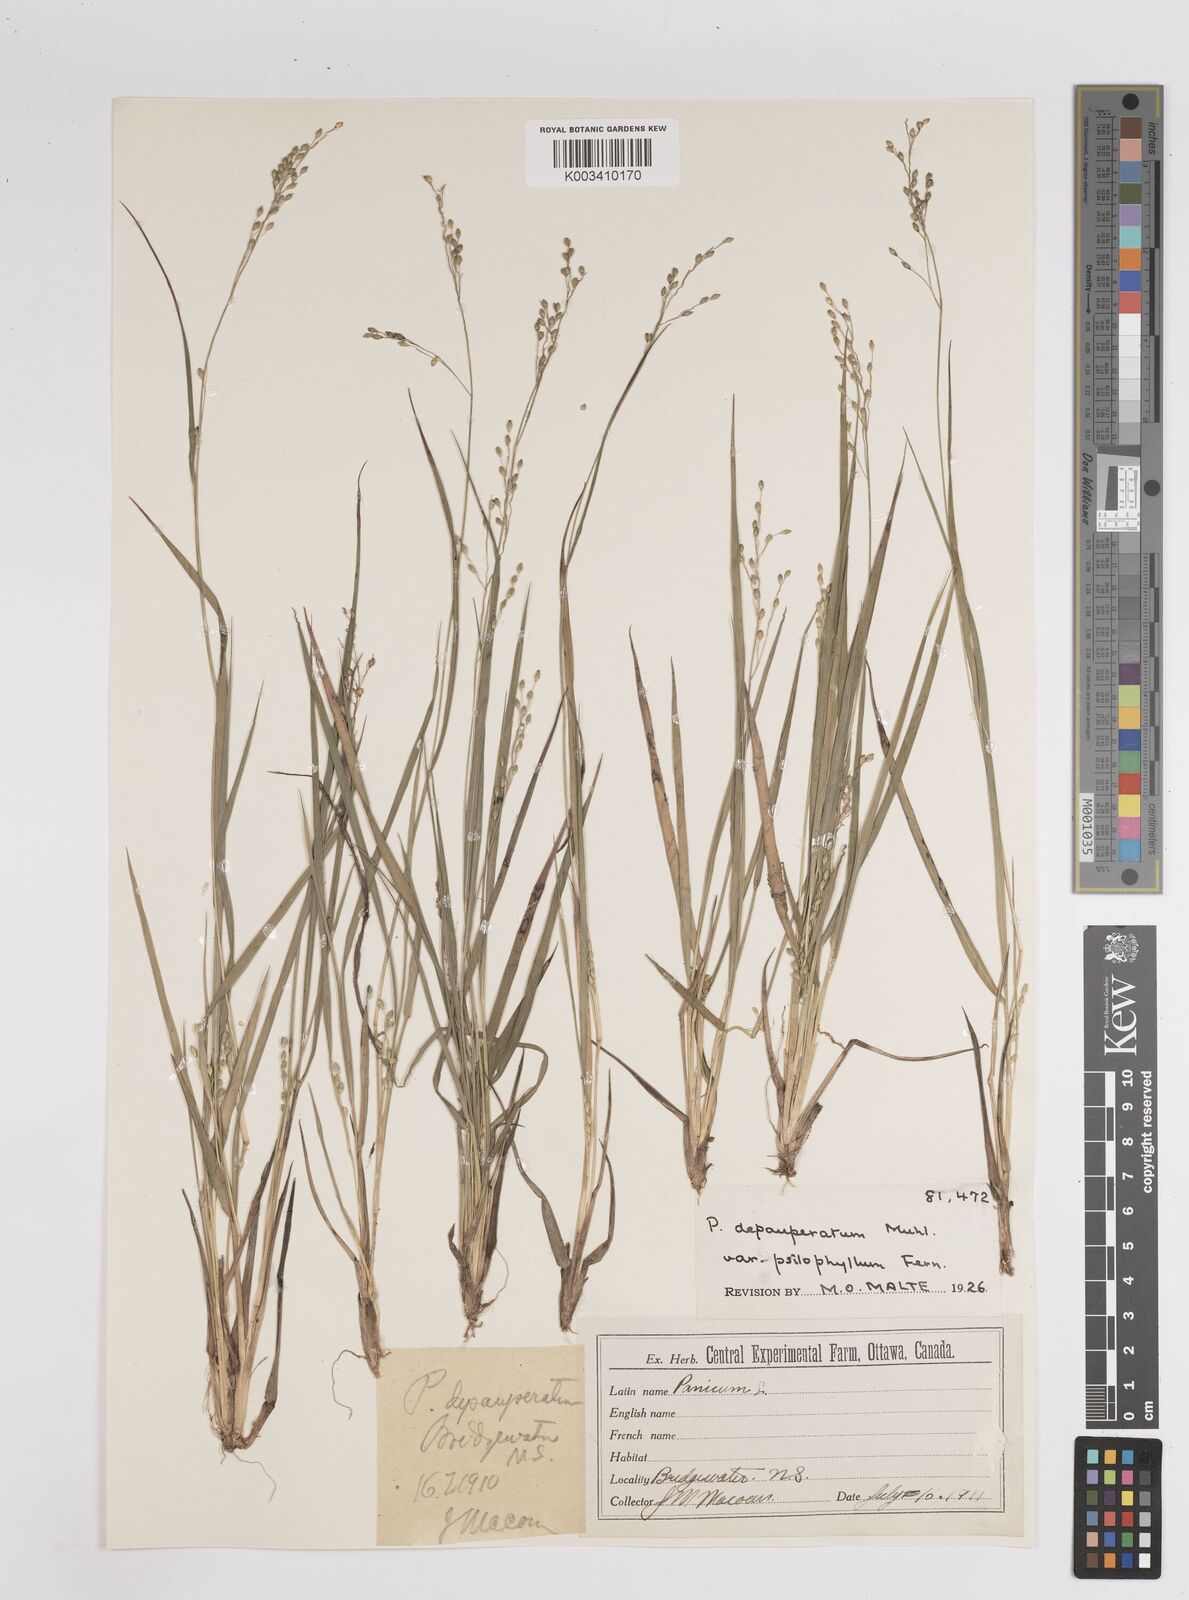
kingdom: Plantae
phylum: Tracheophyta
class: Liliopsida
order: Poales
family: Poaceae
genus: Dichanthelium
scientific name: Dichanthelium depauperatum
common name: Depauperate panicgrass
